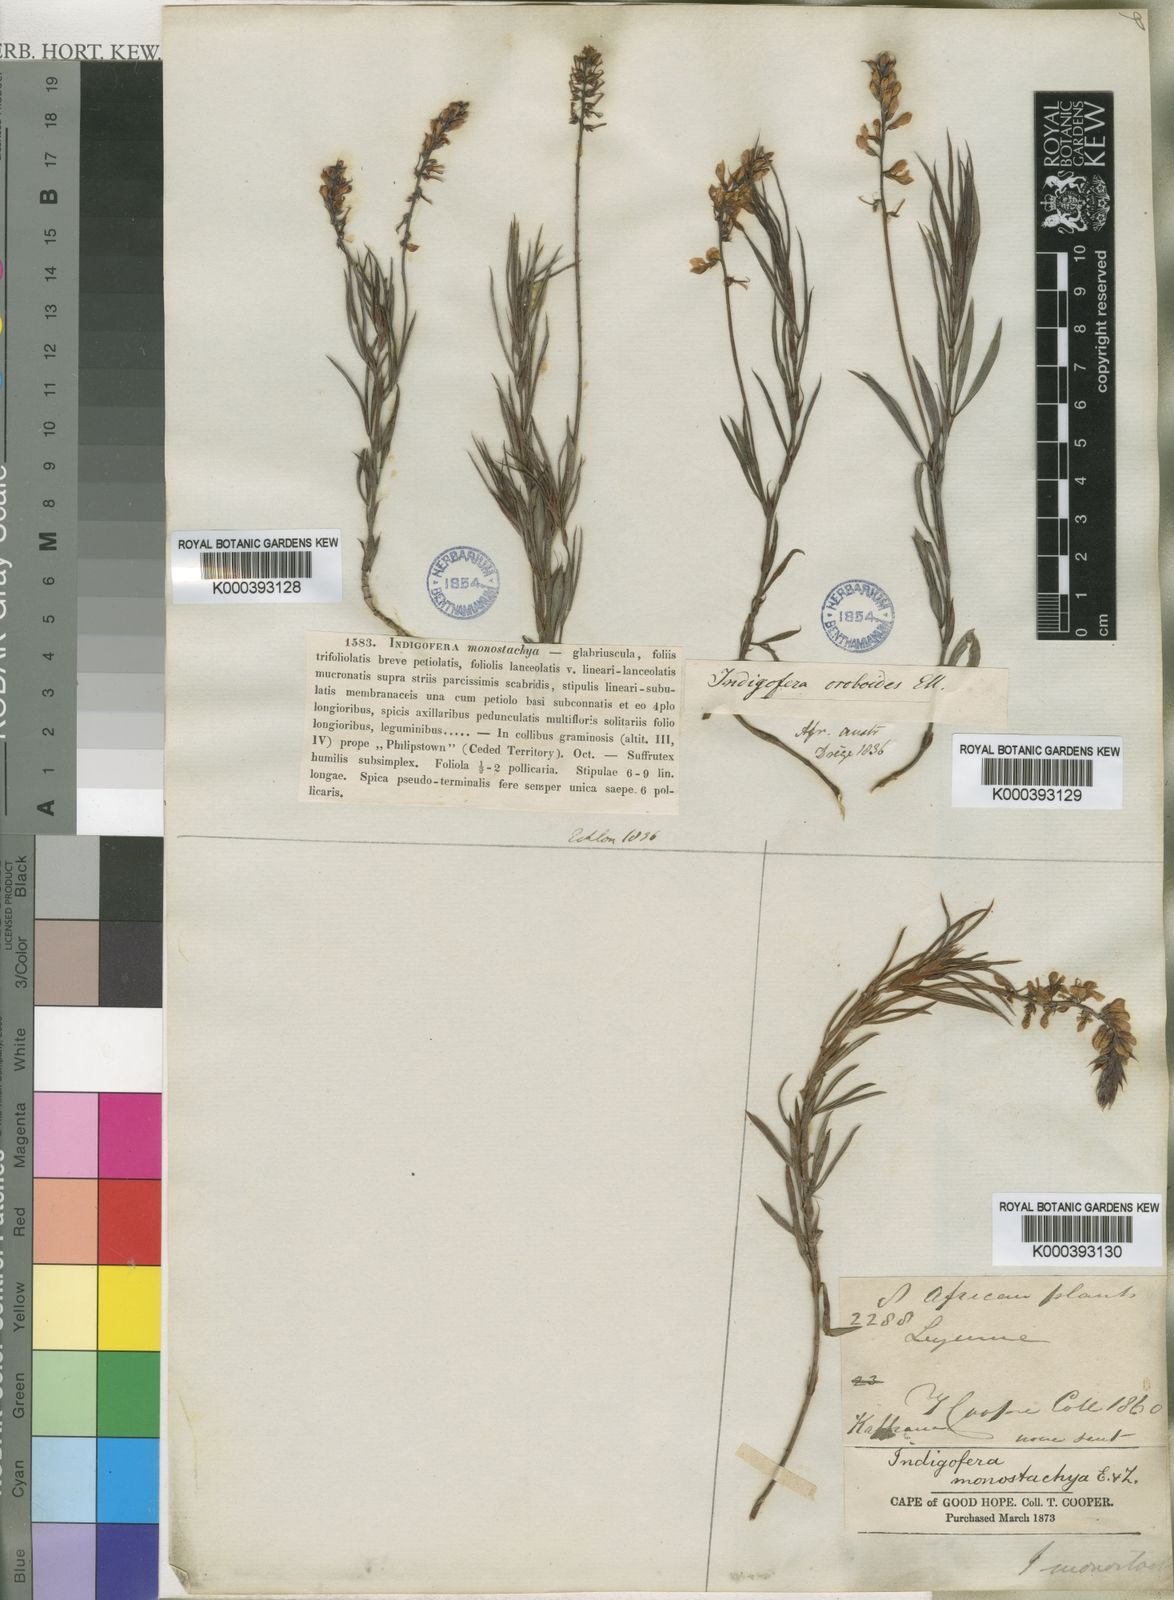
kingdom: Plantae
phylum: Tracheophyta
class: Magnoliopsida
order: Fabales
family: Fabaceae
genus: Indigofera
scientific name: Indigofera monostachya
